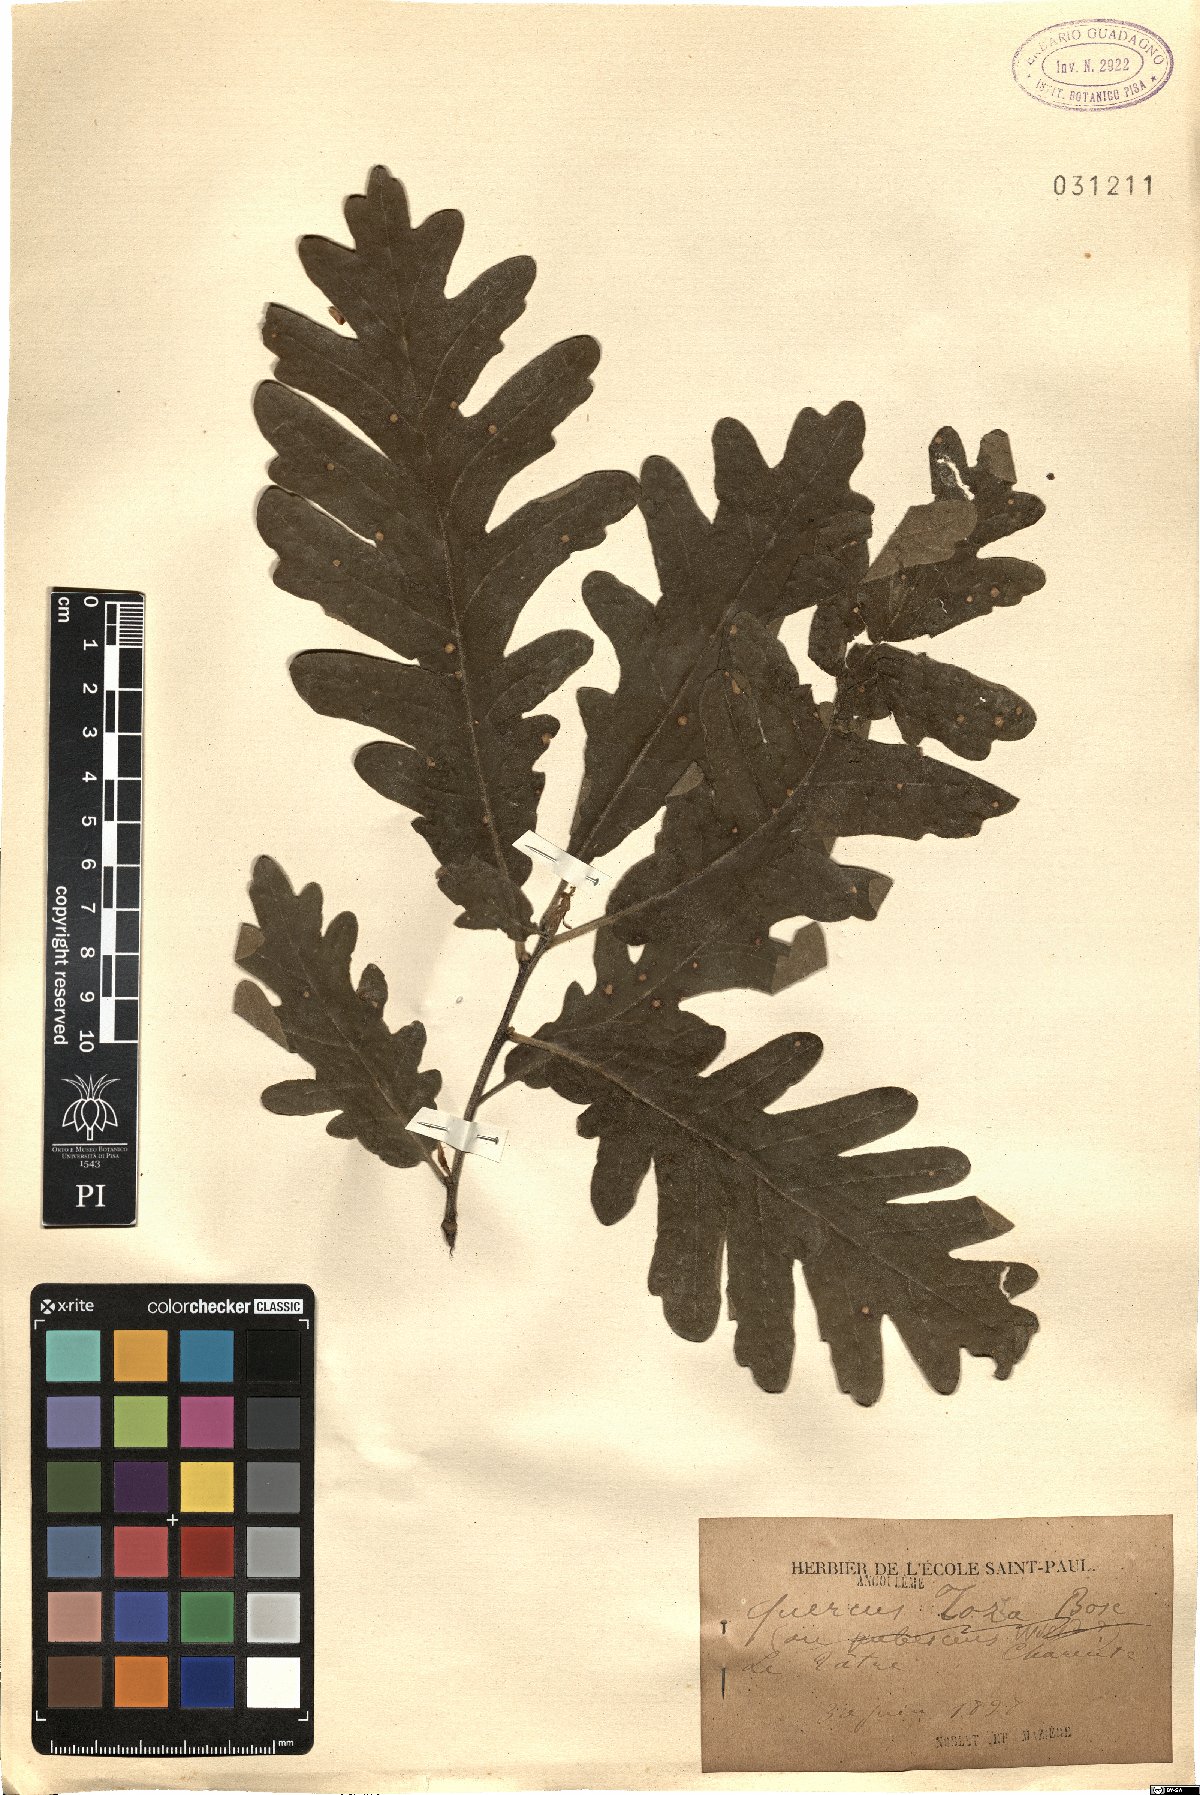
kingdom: Plantae
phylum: Tracheophyta
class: Magnoliopsida
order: Fagales
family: Fagaceae
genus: Quercus
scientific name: Quercus pyrenaica
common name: Pyrenean oak
